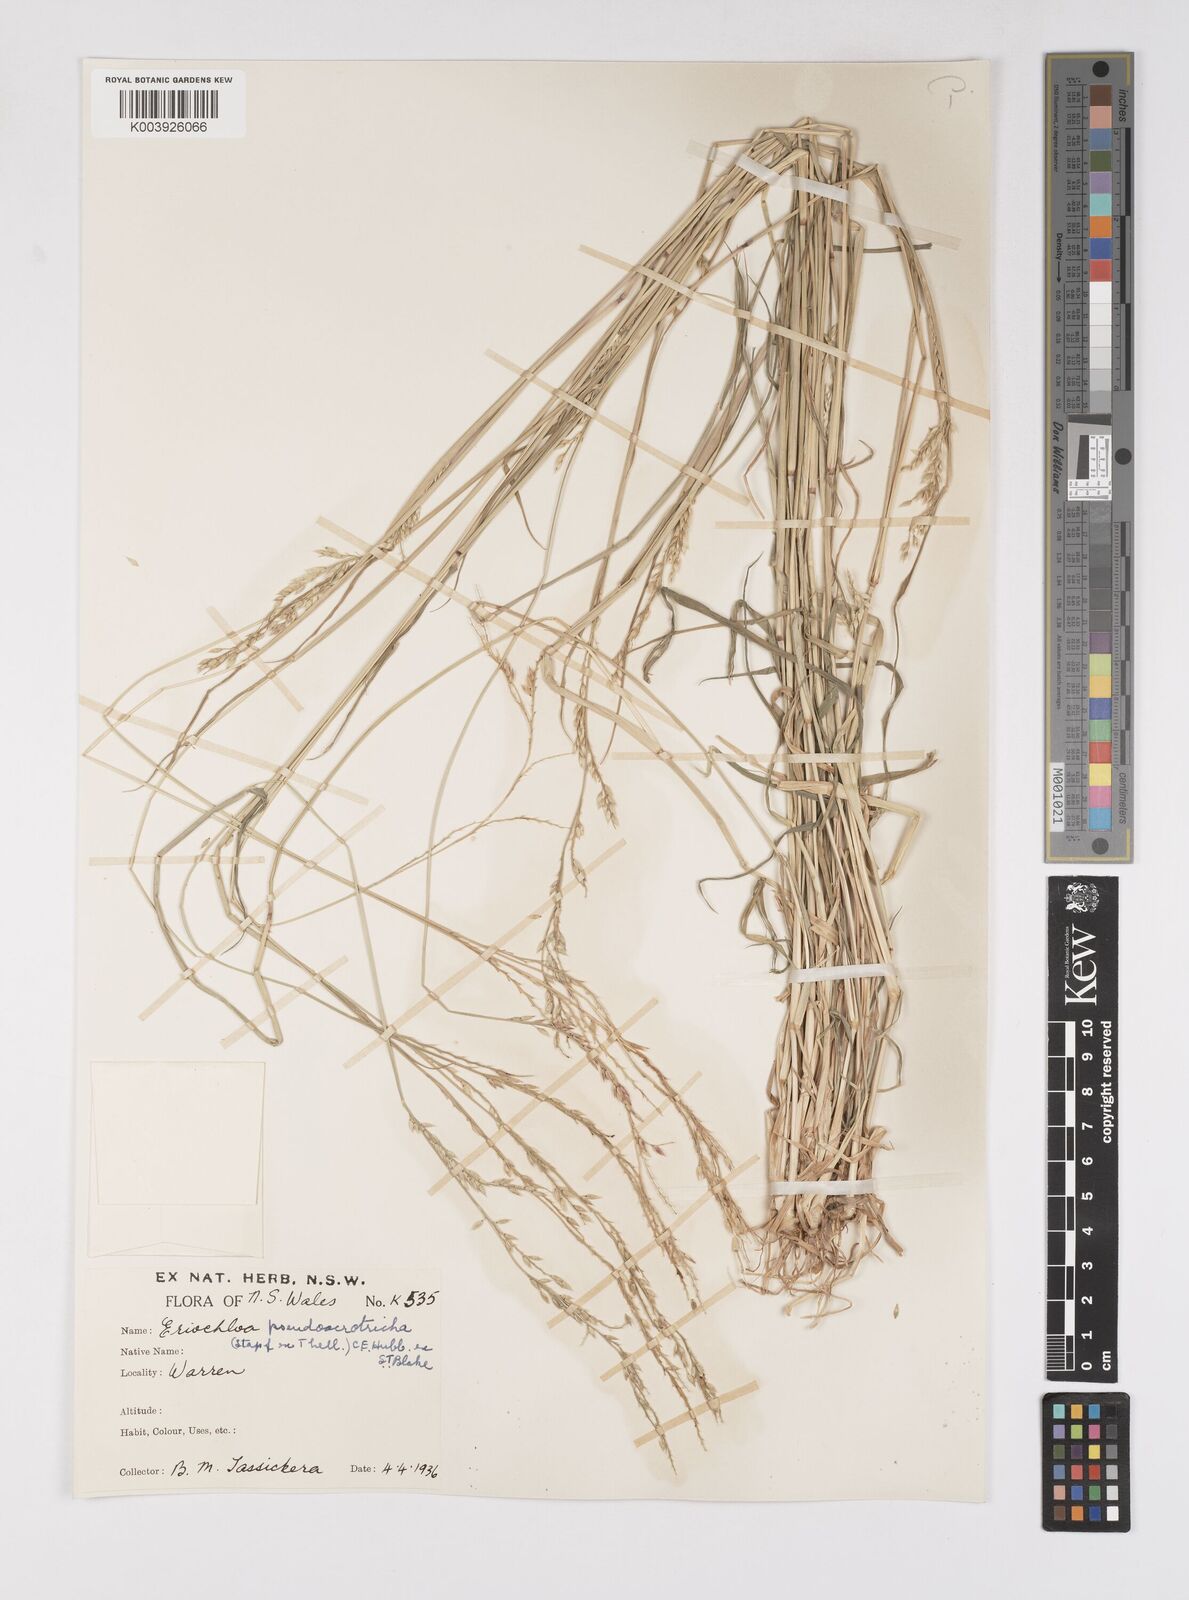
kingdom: Plantae
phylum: Tracheophyta
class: Liliopsida
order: Poales
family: Poaceae
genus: Eriochloa
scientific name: Eriochloa pseudoacrotricha
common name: Perennial cup-grass
